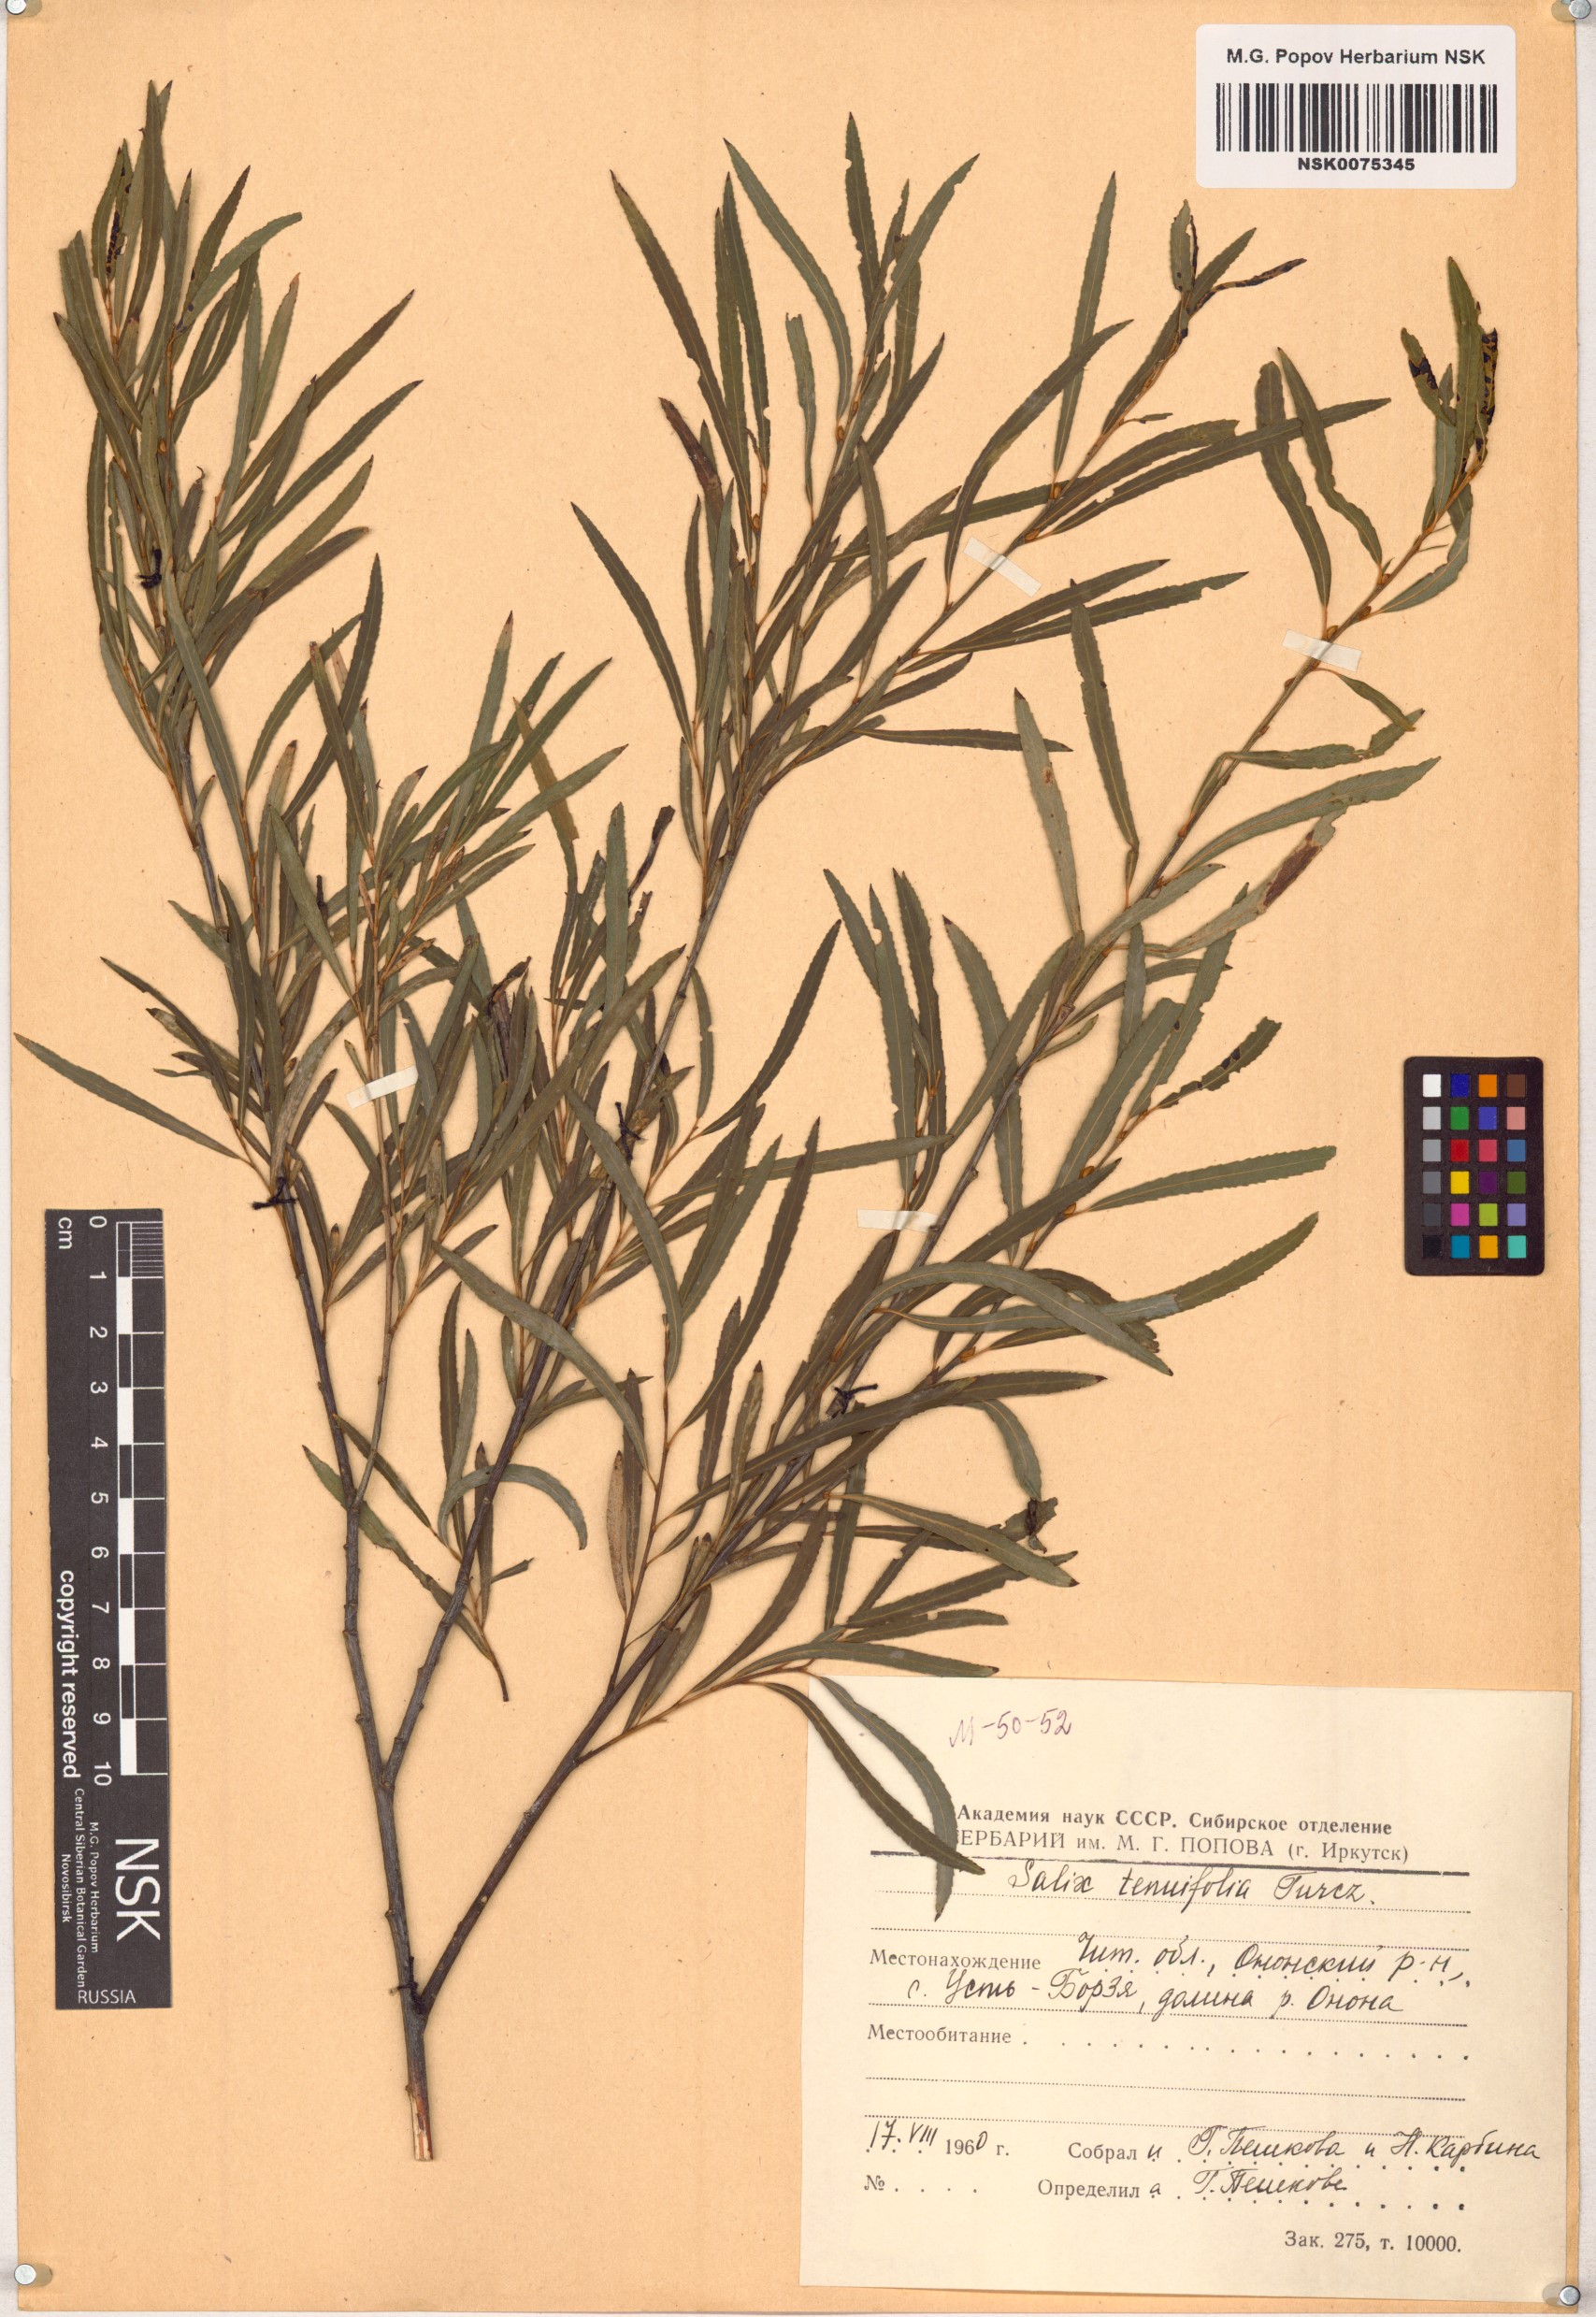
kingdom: Plantae
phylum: Tracheophyta
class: Magnoliopsida
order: Malpighiales
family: Salicaceae
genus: Salix
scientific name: Salix
